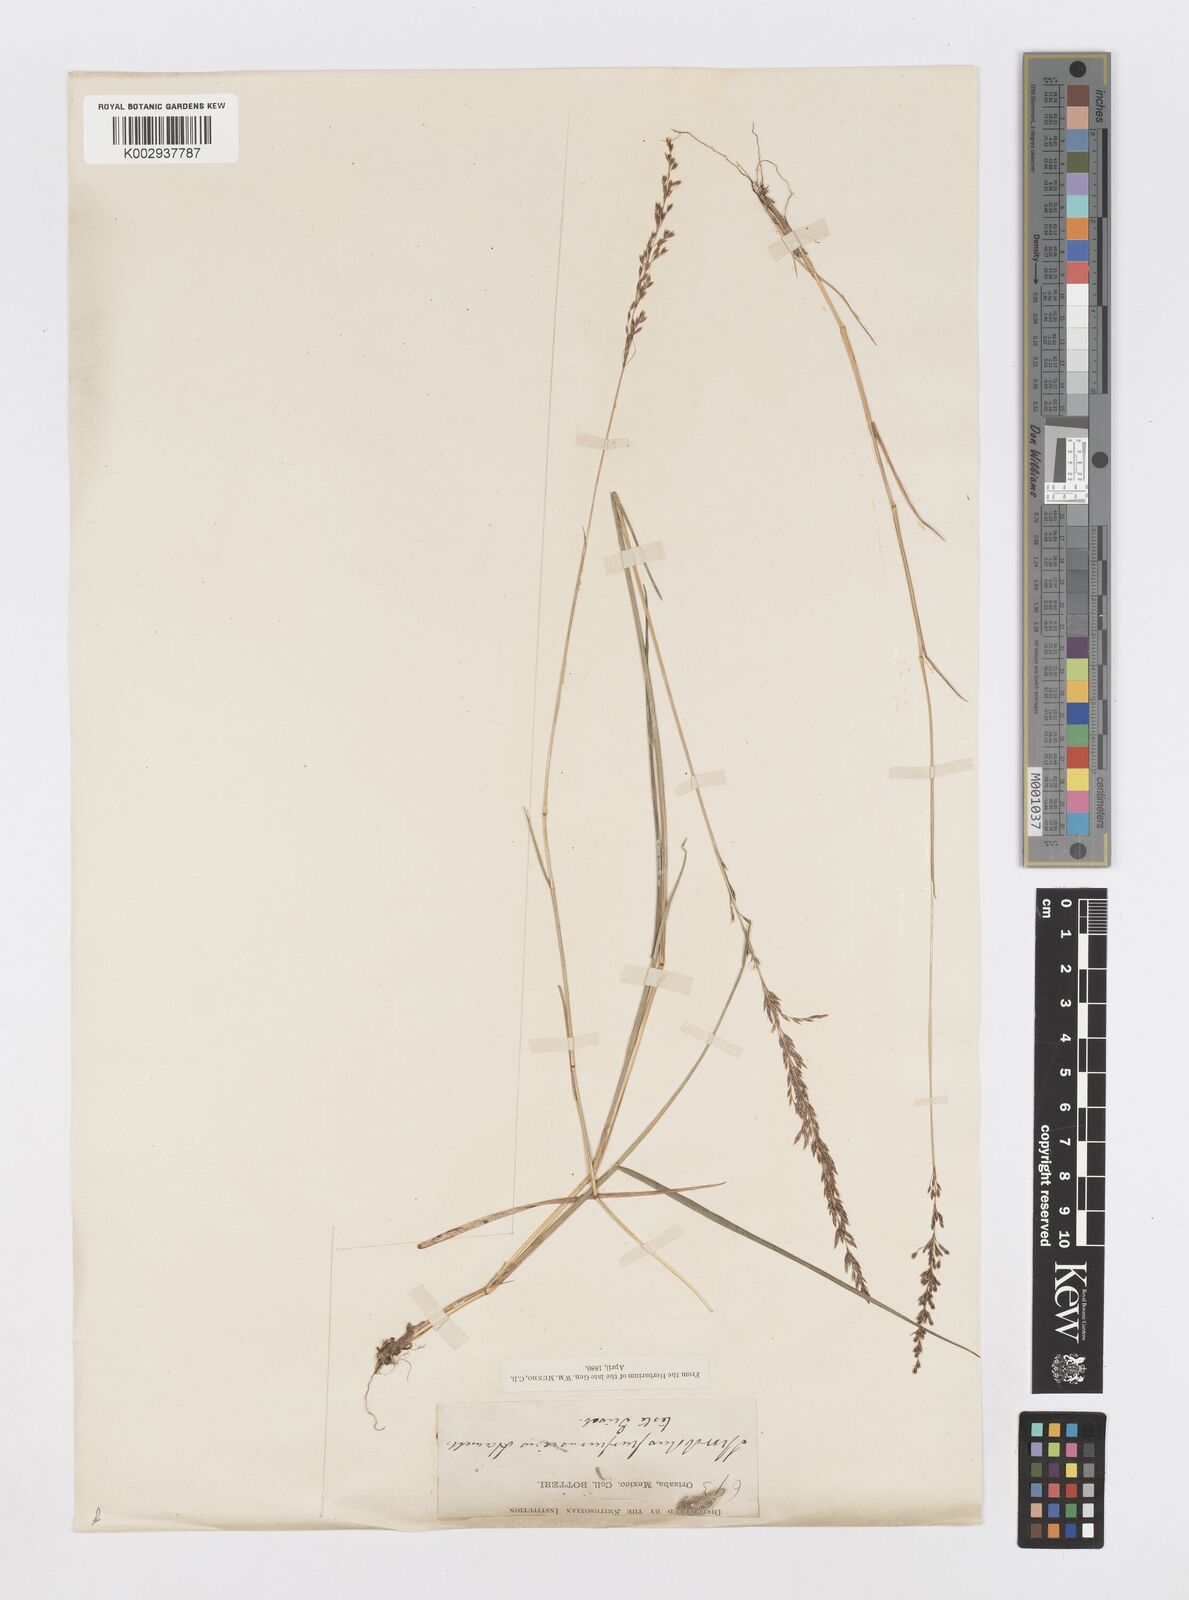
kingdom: Plantae
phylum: Tracheophyta
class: Liliopsida
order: Poales
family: Poaceae
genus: Sporobolus
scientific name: Sporobolus purpurascens
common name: Purple dropseed
